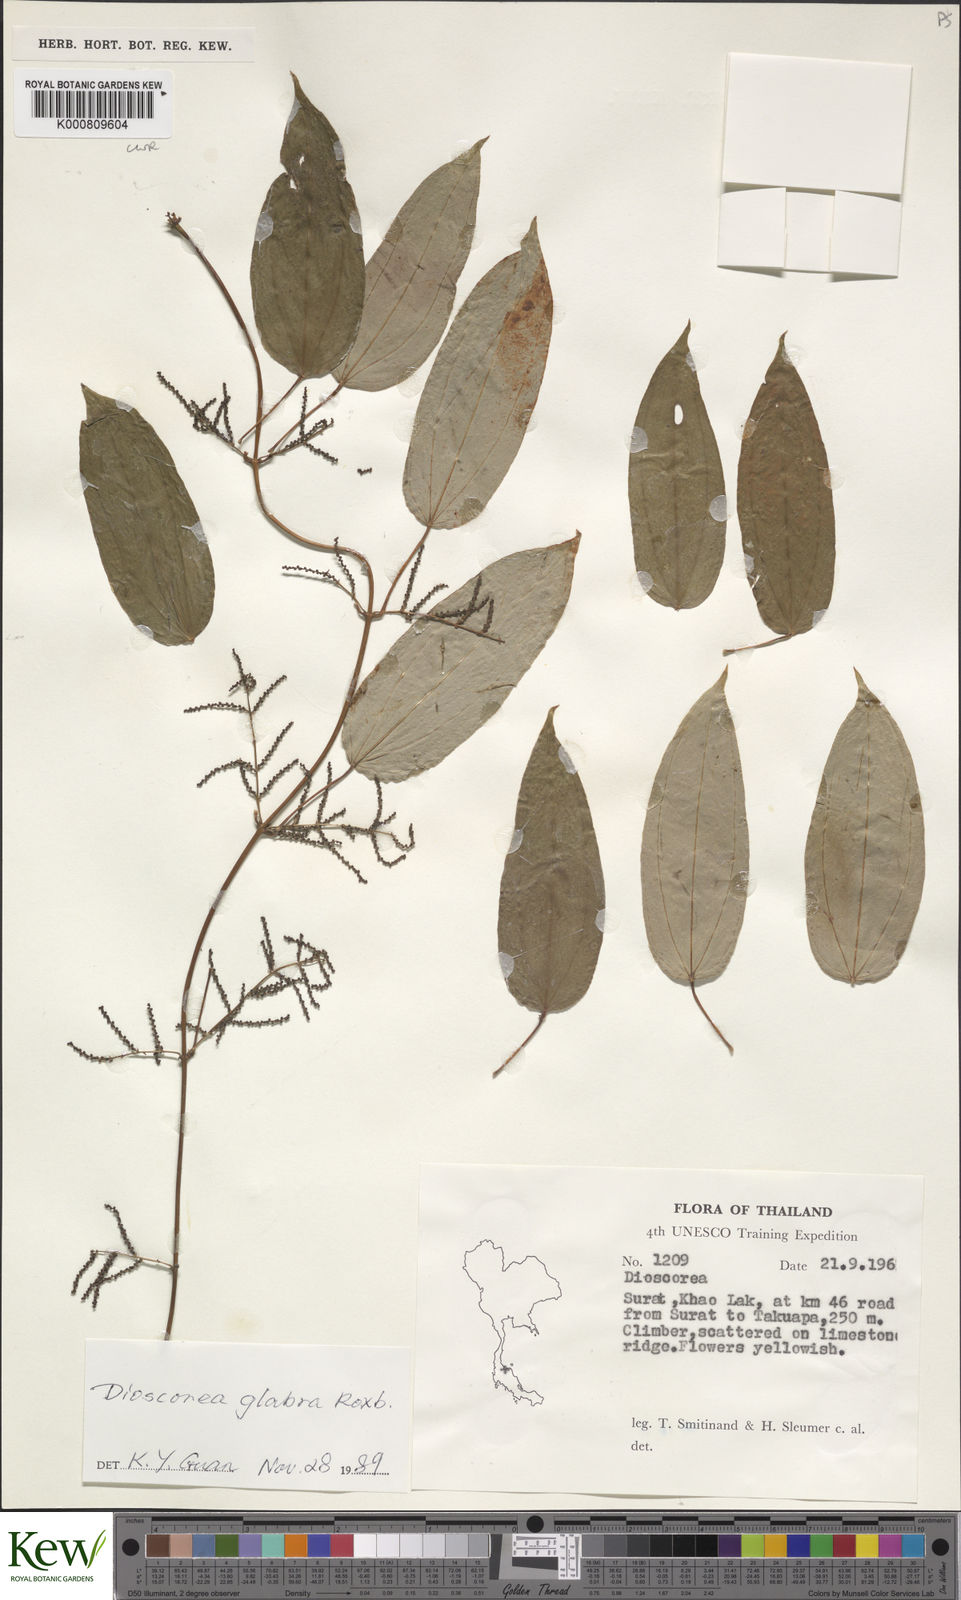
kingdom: Plantae
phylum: Tracheophyta
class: Liliopsida
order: Dioscoreales
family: Dioscoreaceae
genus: Dioscorea
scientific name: Dioscorea glabra
